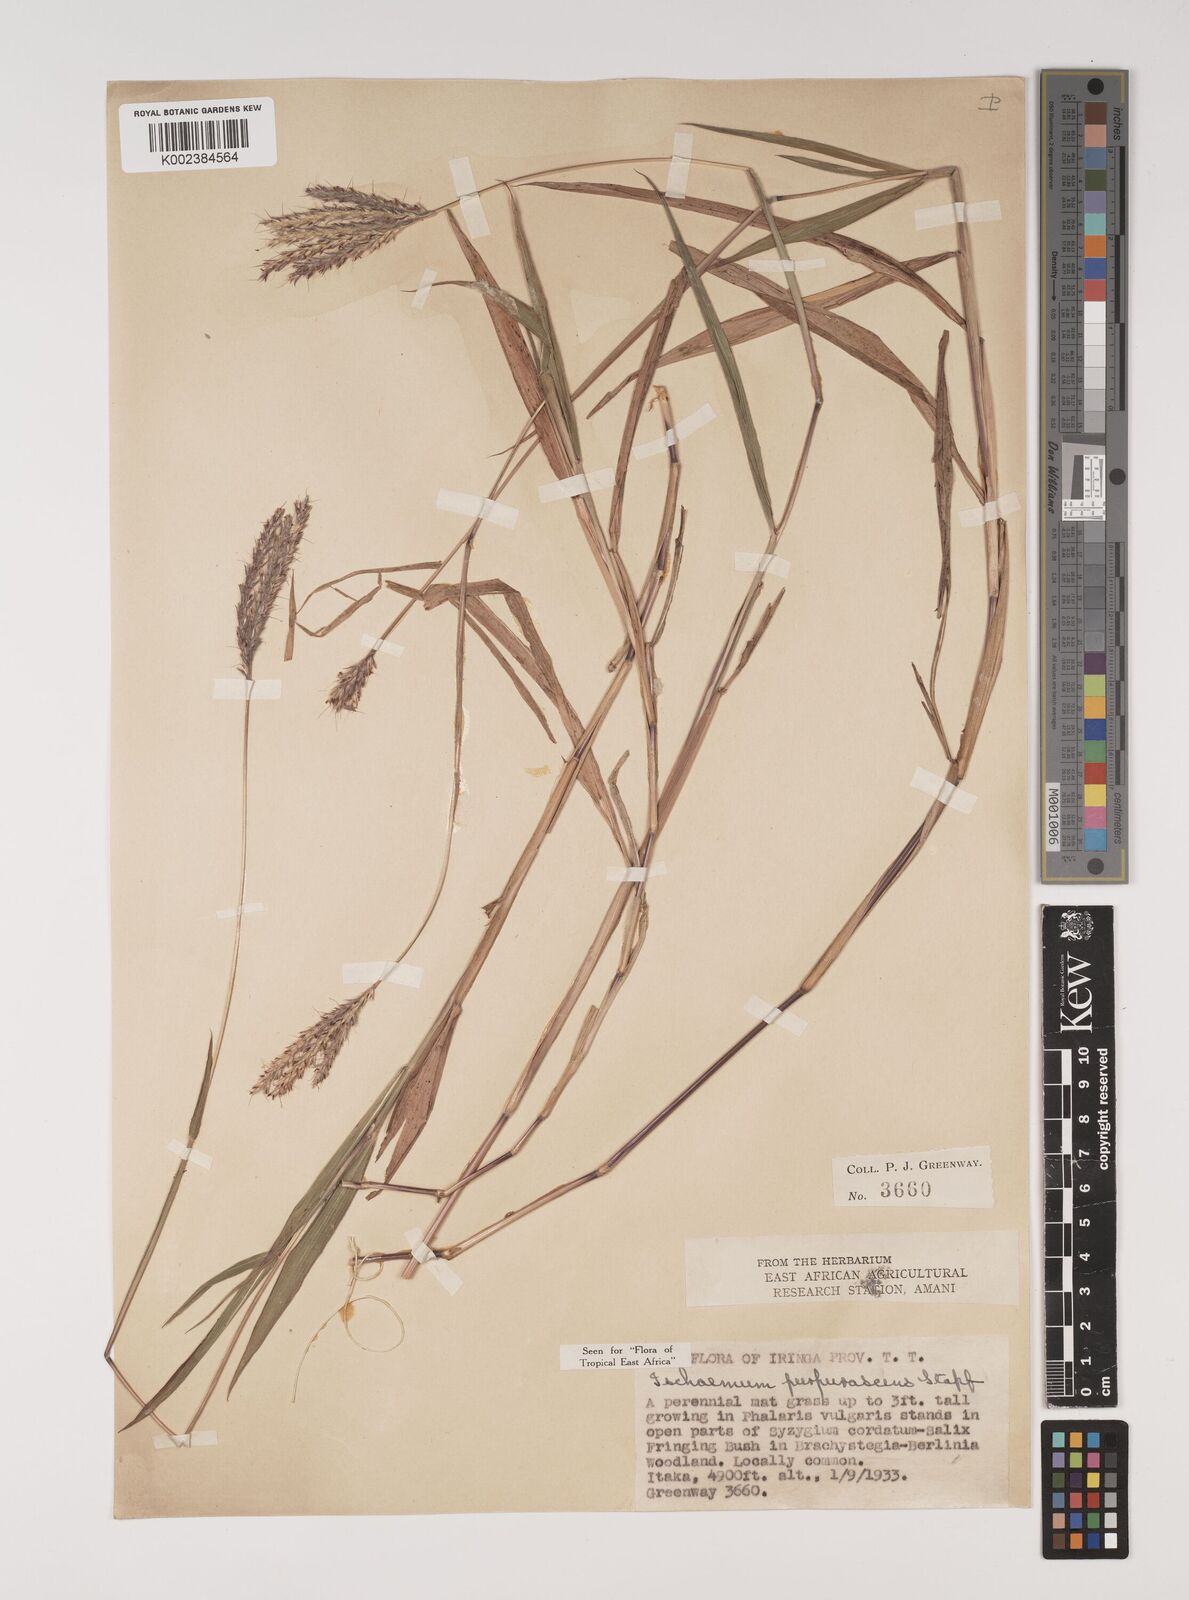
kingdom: Plantae
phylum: Tracheophyta
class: Liliopsida
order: Poales
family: Poaceae
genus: Ischaemum
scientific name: Ischaemum polystachyum
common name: Paddle grass
